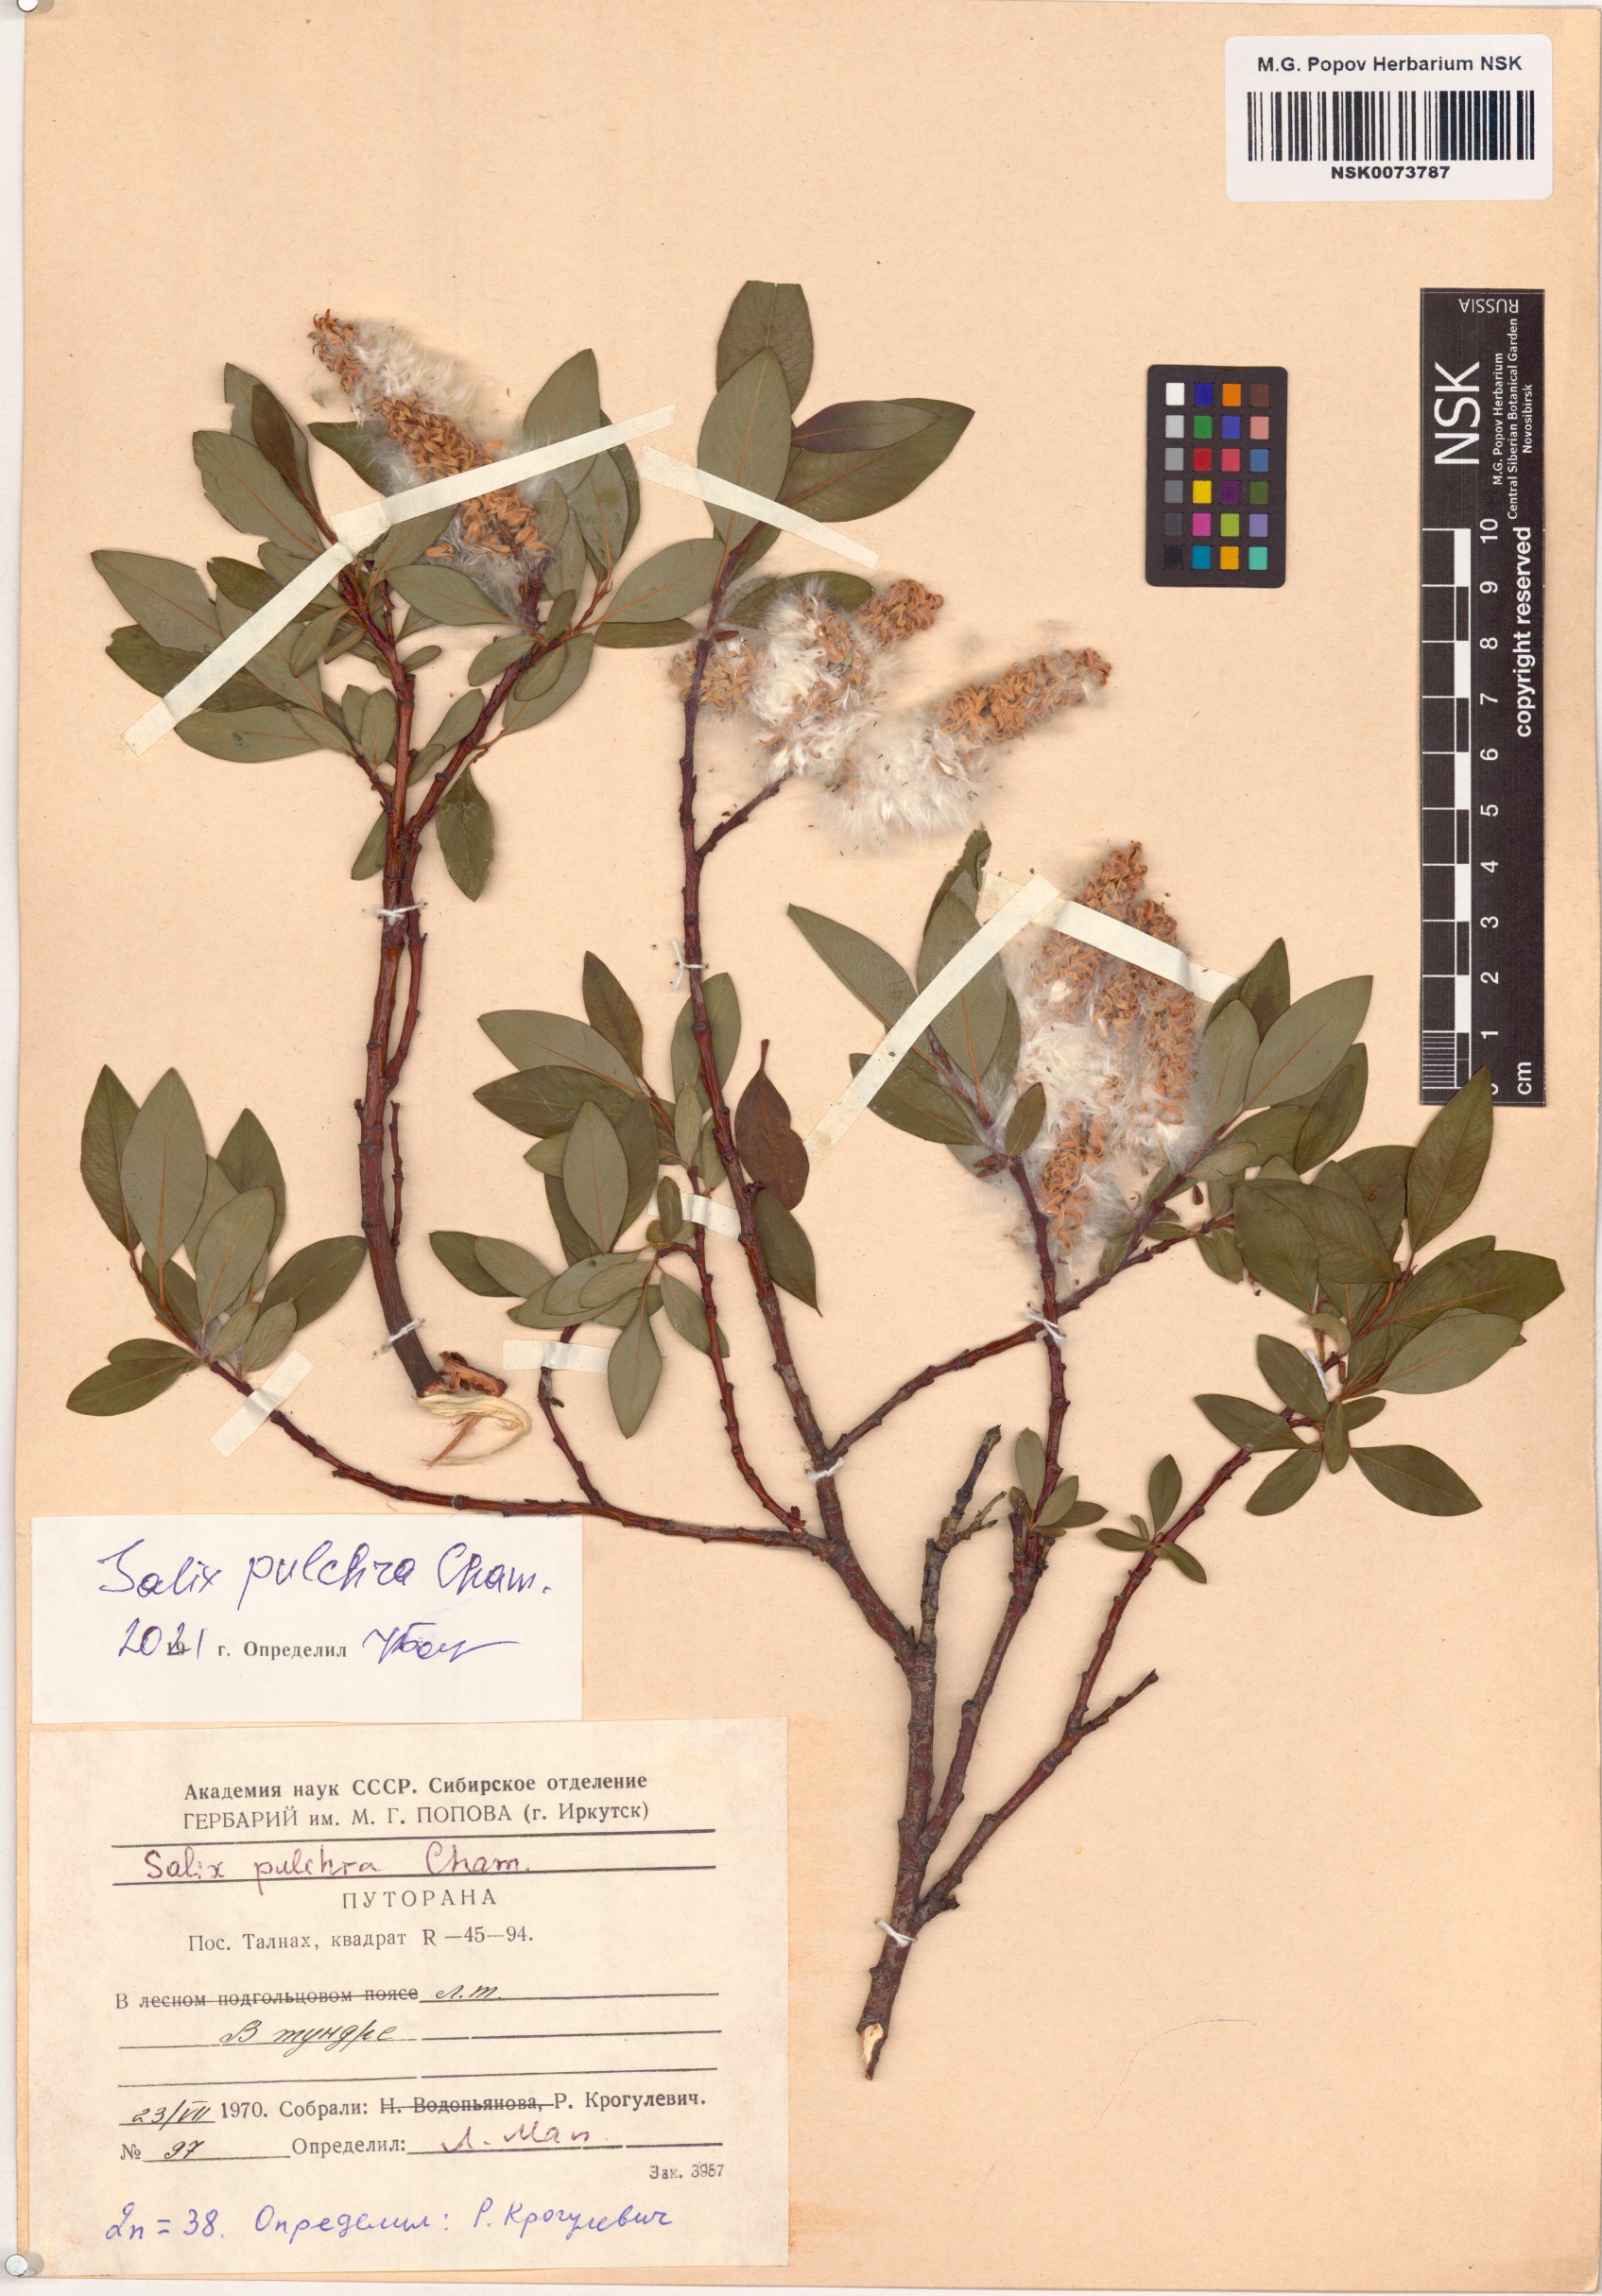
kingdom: Plantae
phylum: Tracheophyta
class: Magnoliopsida
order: Malpighiales
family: Salicaceae
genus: Salix
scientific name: Salix pulchra
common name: Diamond-leaved willow
